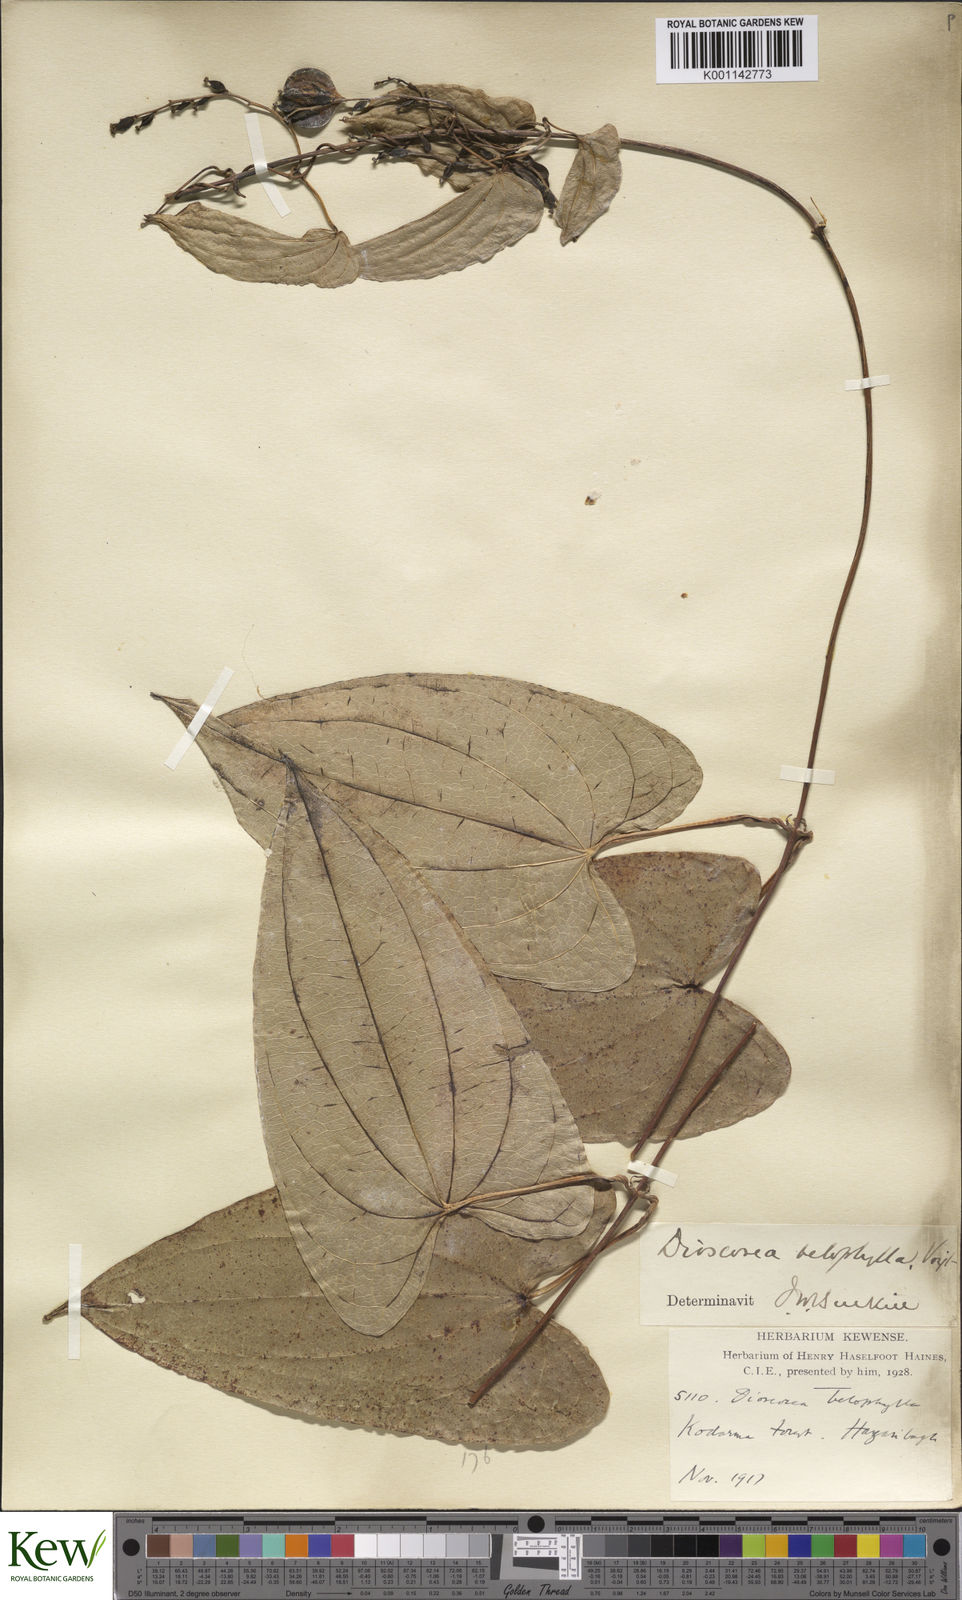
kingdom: Plantae
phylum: Tracheophyta
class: Liliopsida
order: Dioscoreales
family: Dioscoreaceae
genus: Dioscorea
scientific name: Dioscorea belophylla
